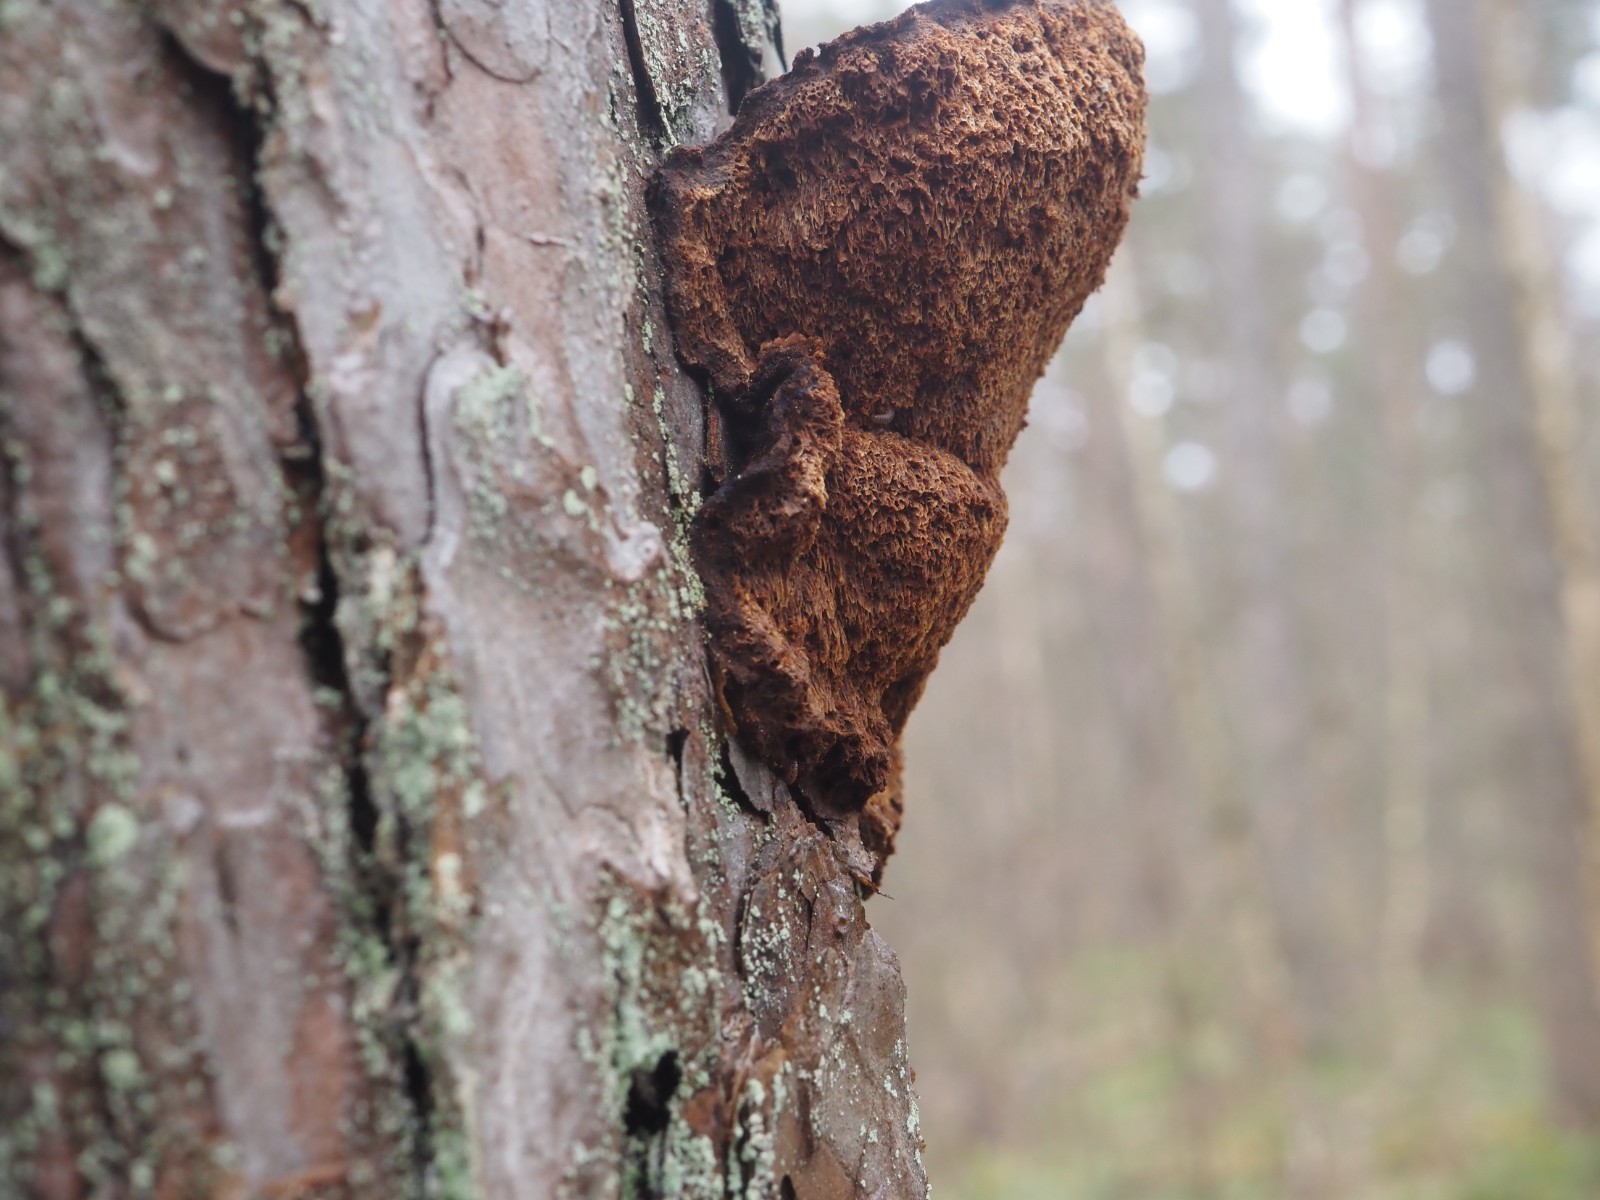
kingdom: Fungi
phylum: Basidiomycota
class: Agaricomycetes
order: Hymenochaetales
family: Hymenochaetaceae
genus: Porodaedalea
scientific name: Porodaedalea pini
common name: fyrre-ildporesvamp
